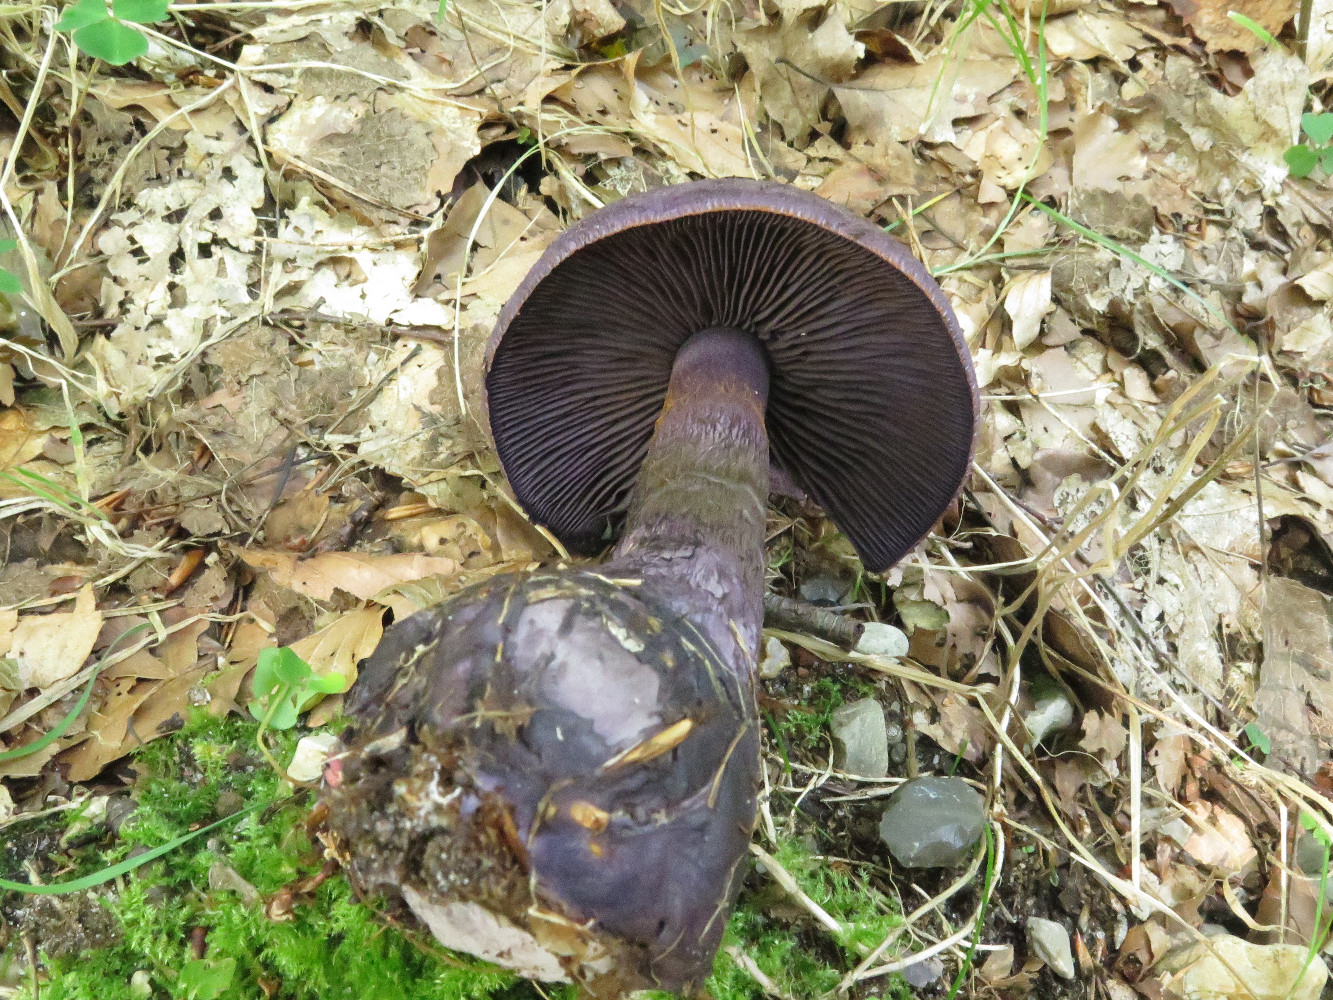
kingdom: Fungi
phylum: Basidiomycota
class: Agaricomycetes
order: Agaricales
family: Cortinariaceae
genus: Cortinarius
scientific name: Cortinarius violaceus
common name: mørkviolet slørhat
